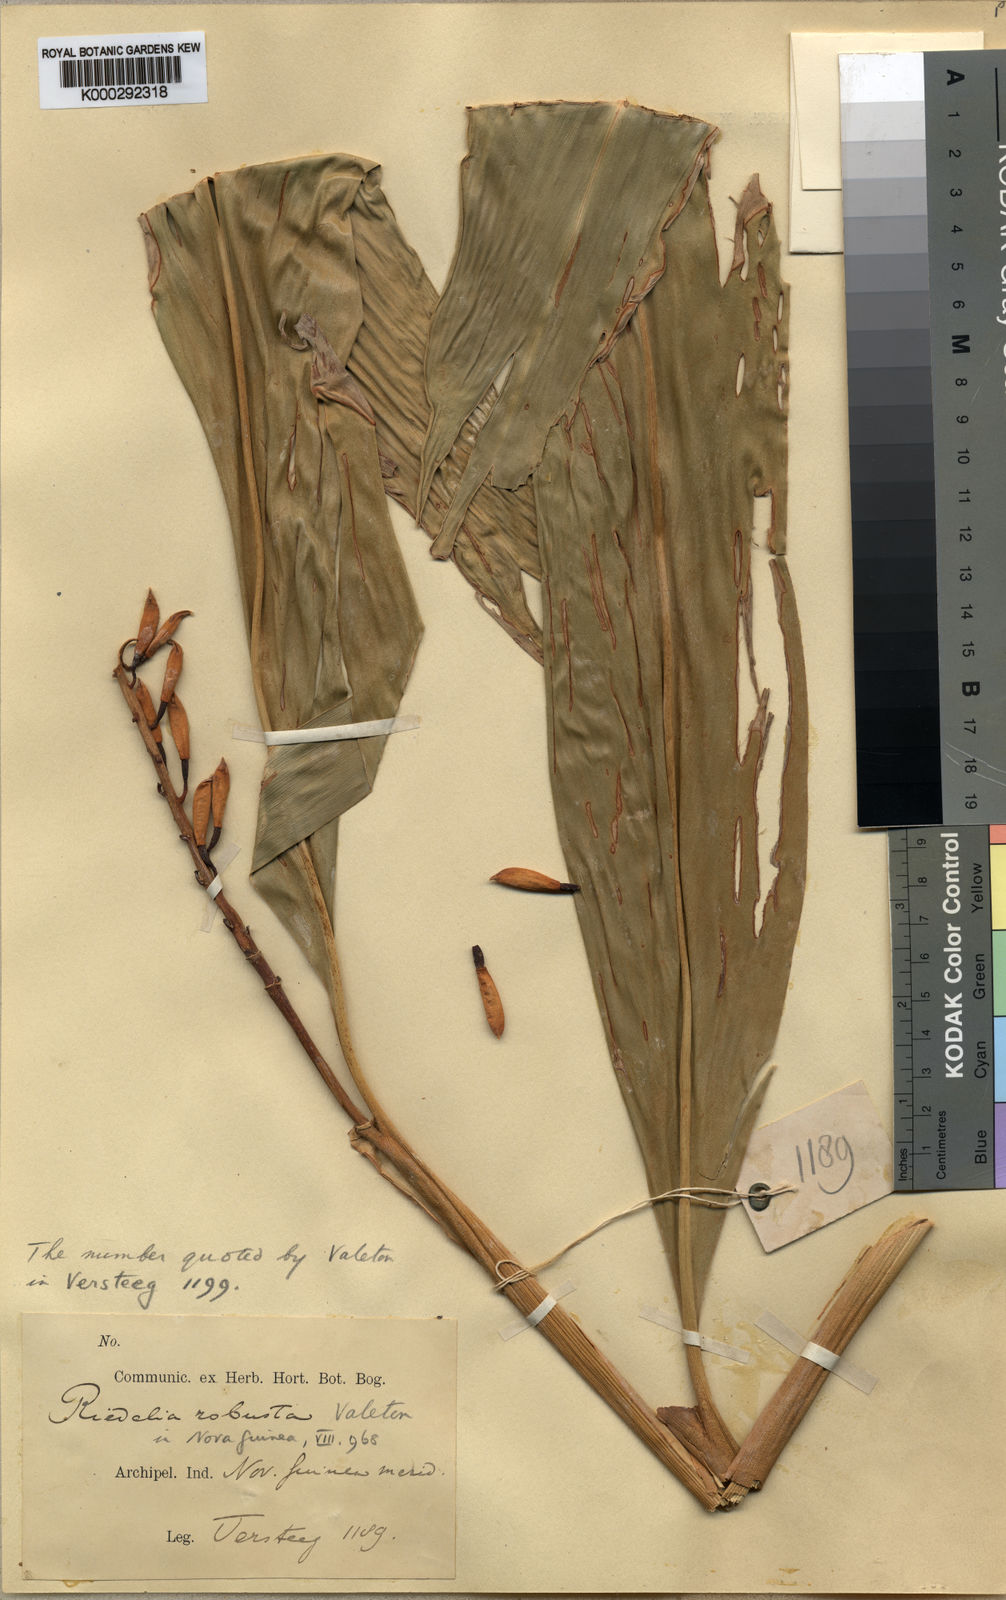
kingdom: Plantae
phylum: Tracheophyta
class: Liliopsida
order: Zingiberales
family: Zingiberaceae
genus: Riedelia
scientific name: Riedelia robusta
